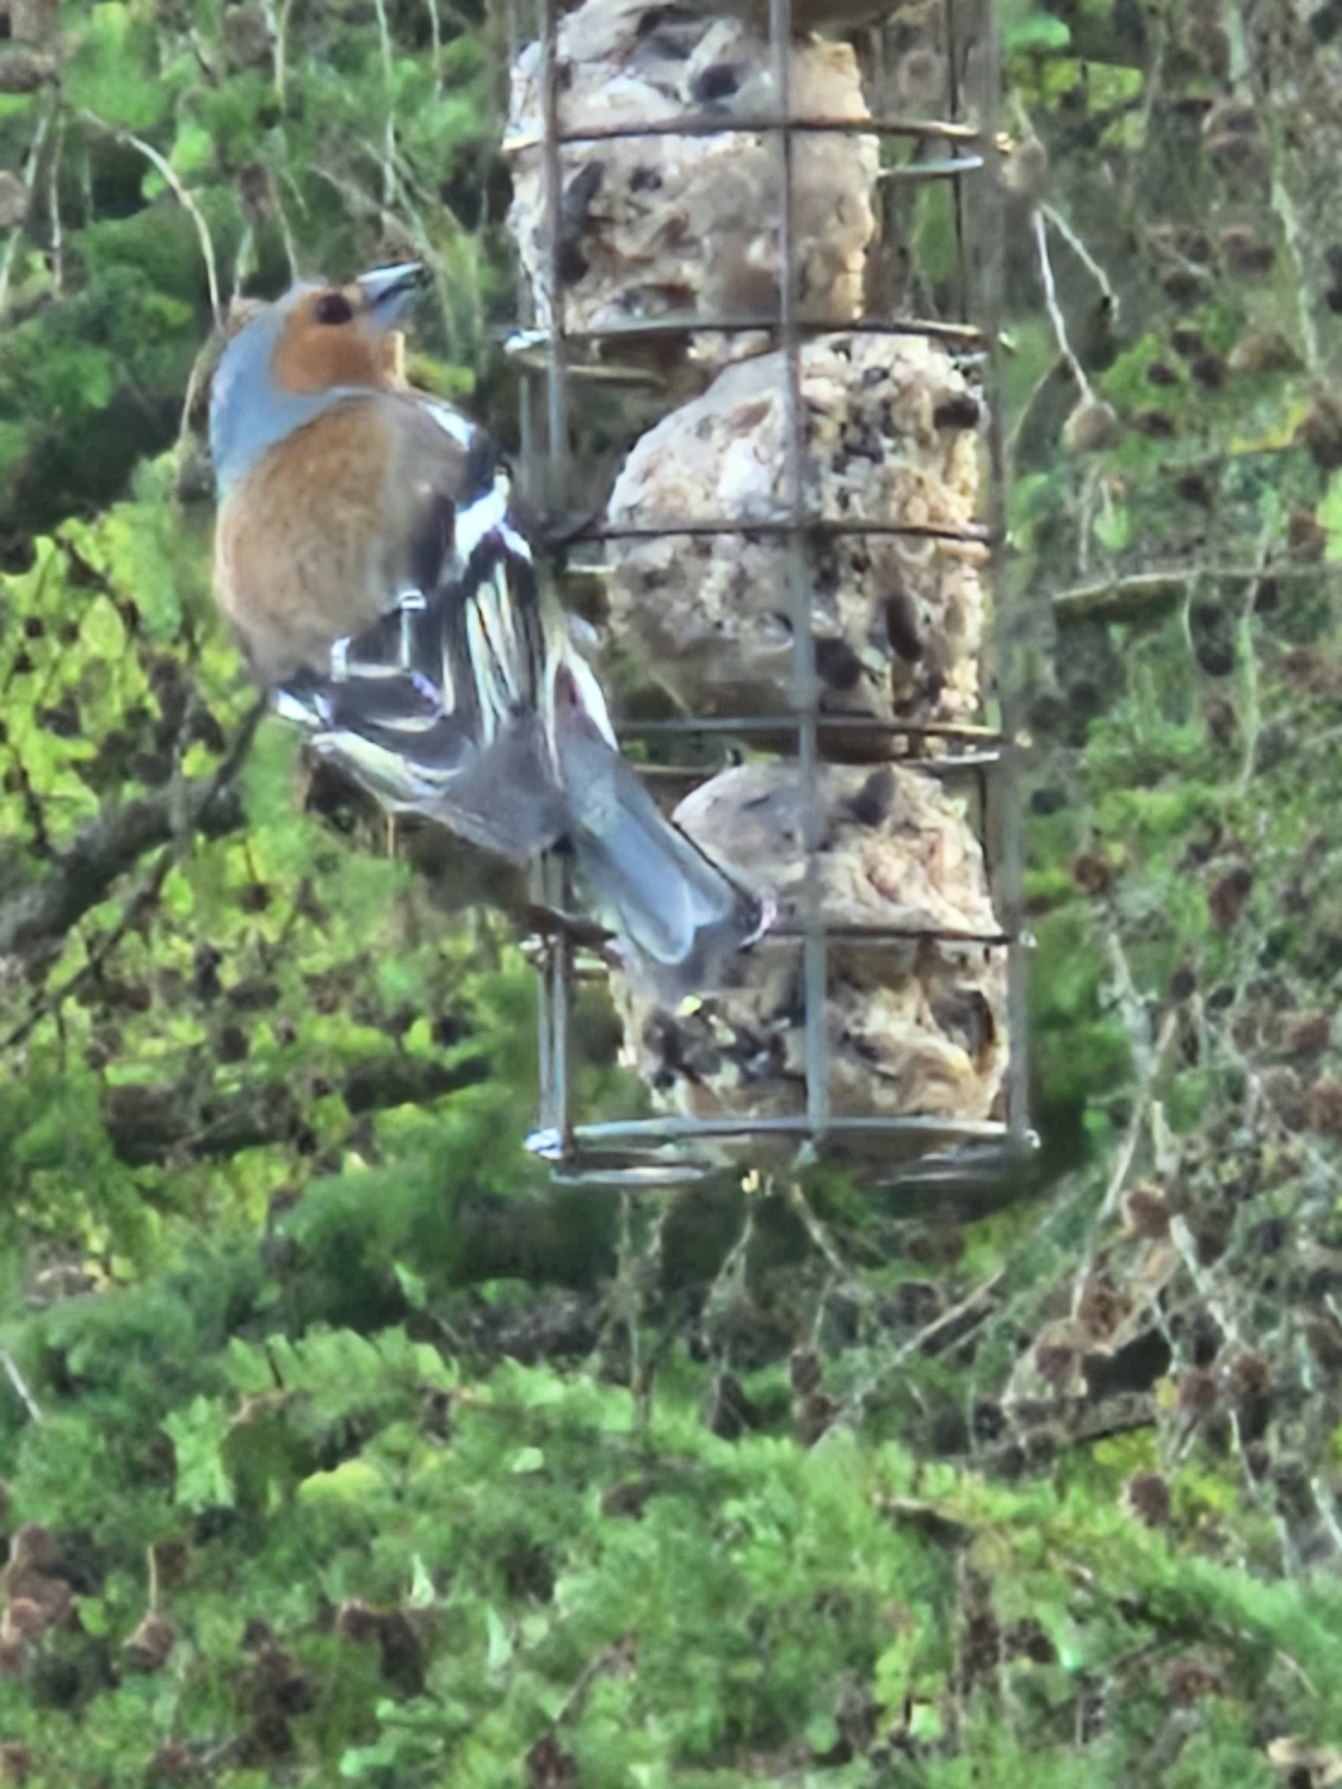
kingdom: Animalia
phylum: Chordata
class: Aves
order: Passeriformes
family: Fringillidae
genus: Fringilla
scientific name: Fringilla coelebs
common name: Bogfinke
